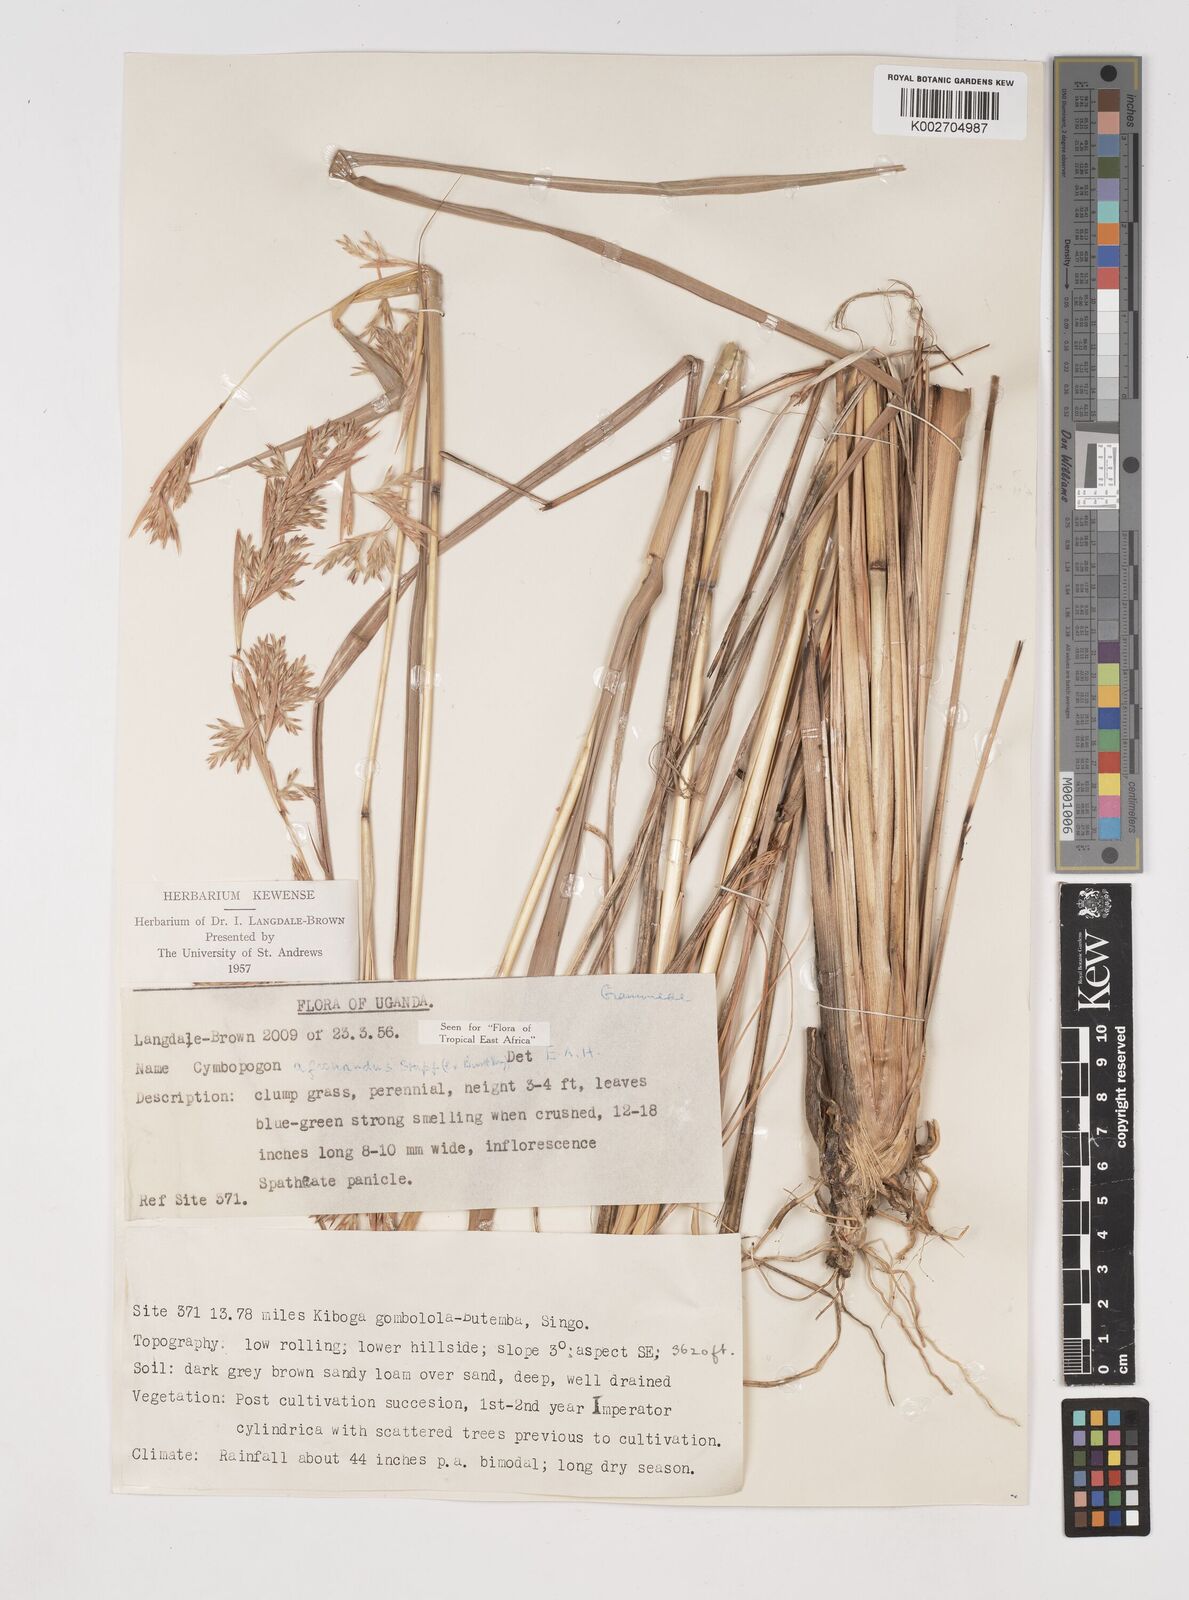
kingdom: Plantae
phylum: Tracheophyta
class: Liliopsida
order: Poales
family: Poaceae
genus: Cymbopogon
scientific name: Cymbopogon nardus
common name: Giant turpentine grass
